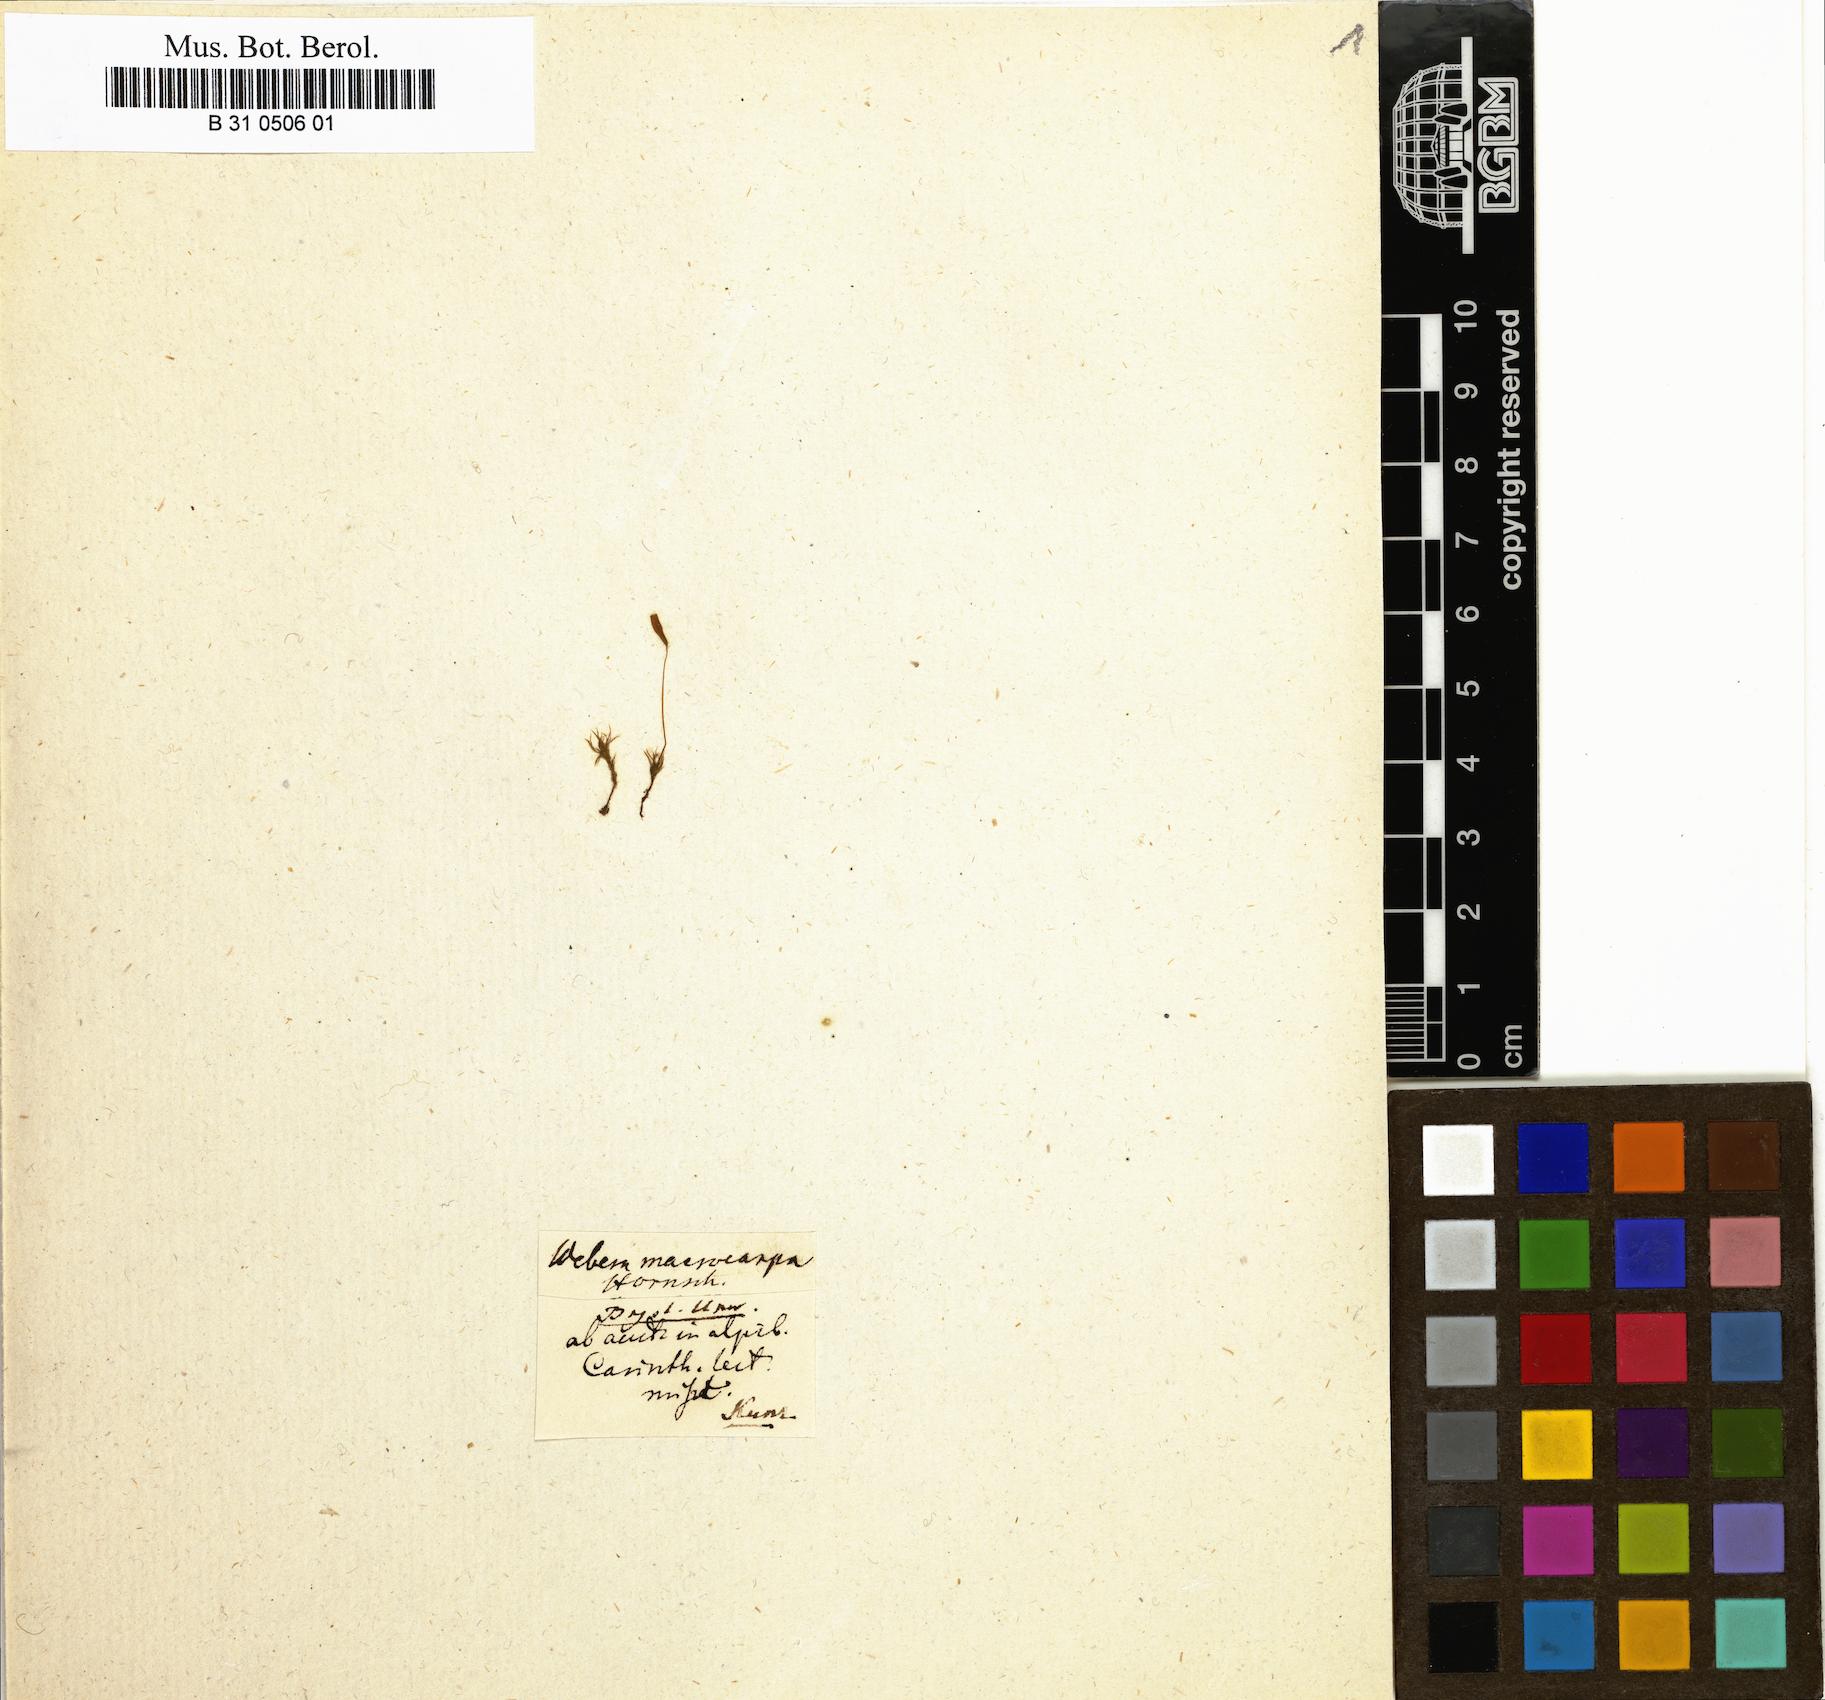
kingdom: Plantae
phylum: Bryophyta
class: Bryopsida
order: Bryales
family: Mniaceae
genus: Pohlia
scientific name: Pohlia elongata
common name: Long-fruited thread-moss
